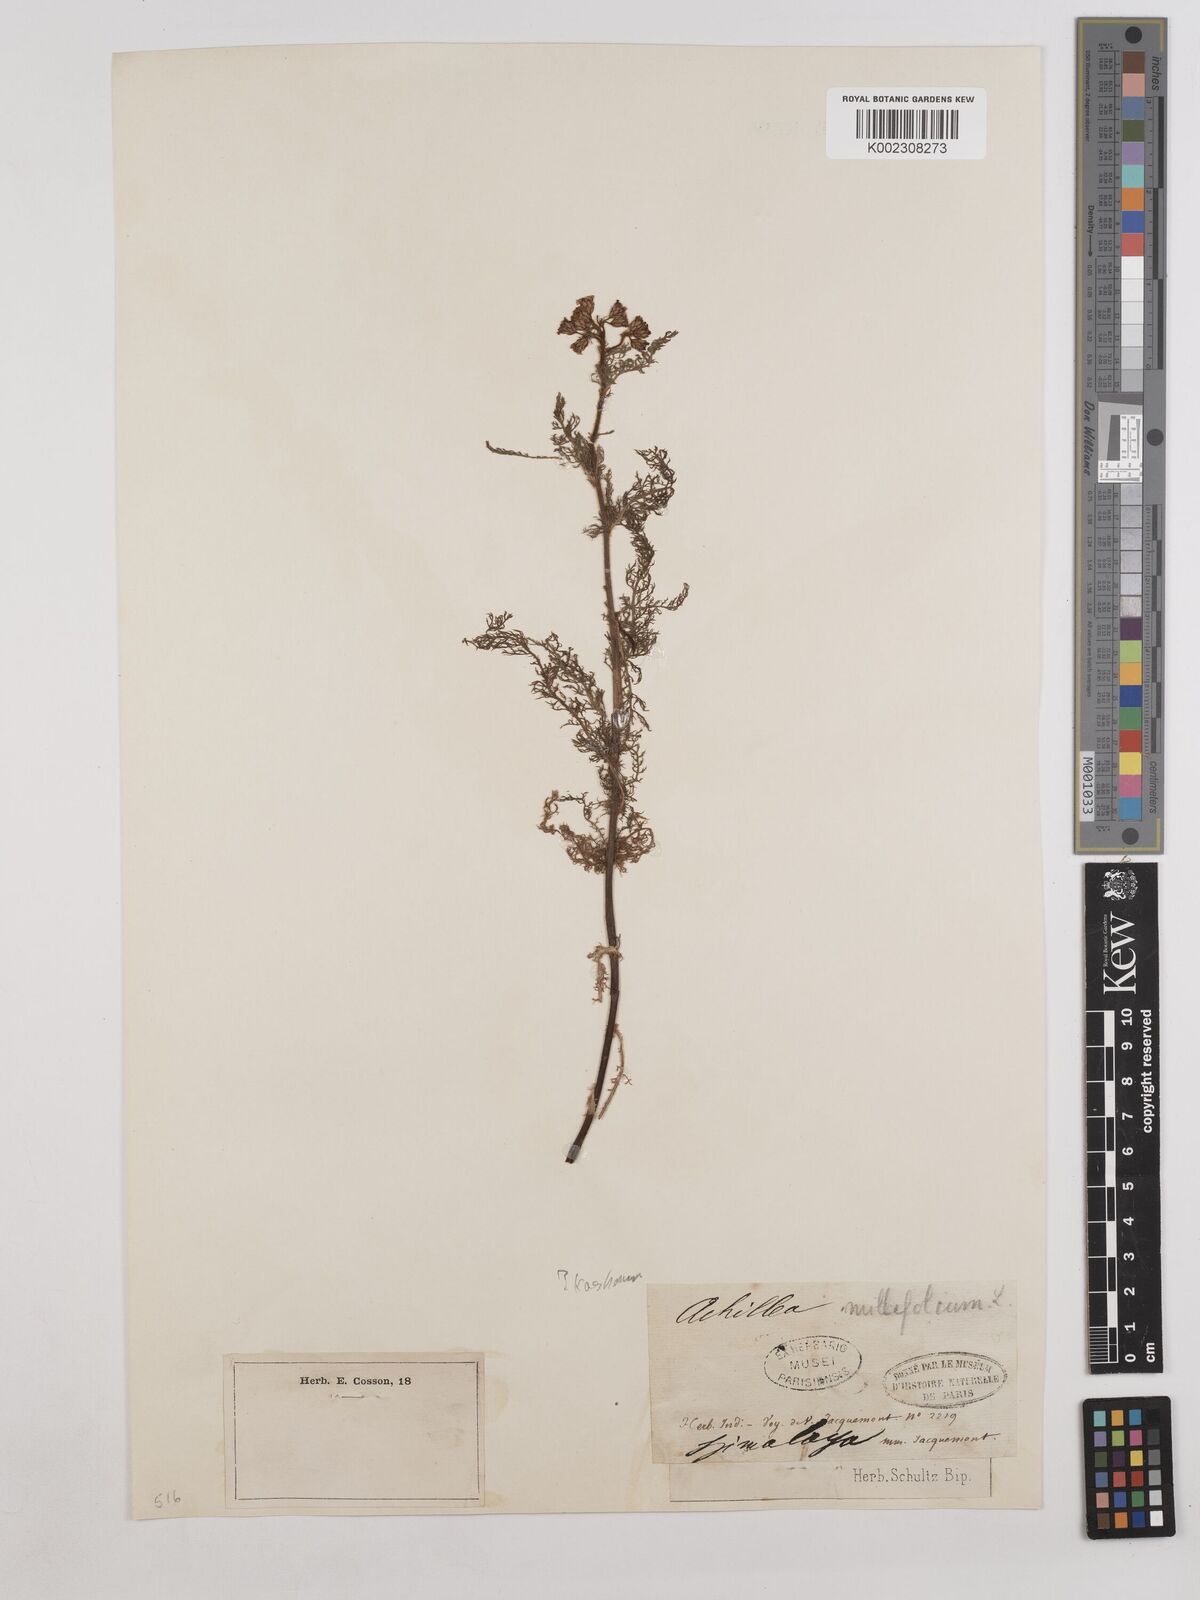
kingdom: Plantae
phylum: Tracheophyta
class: Magnoliopsida
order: Asterales
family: Asteraceae
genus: Achillea
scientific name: Achillea millefolium
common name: Yarrow
